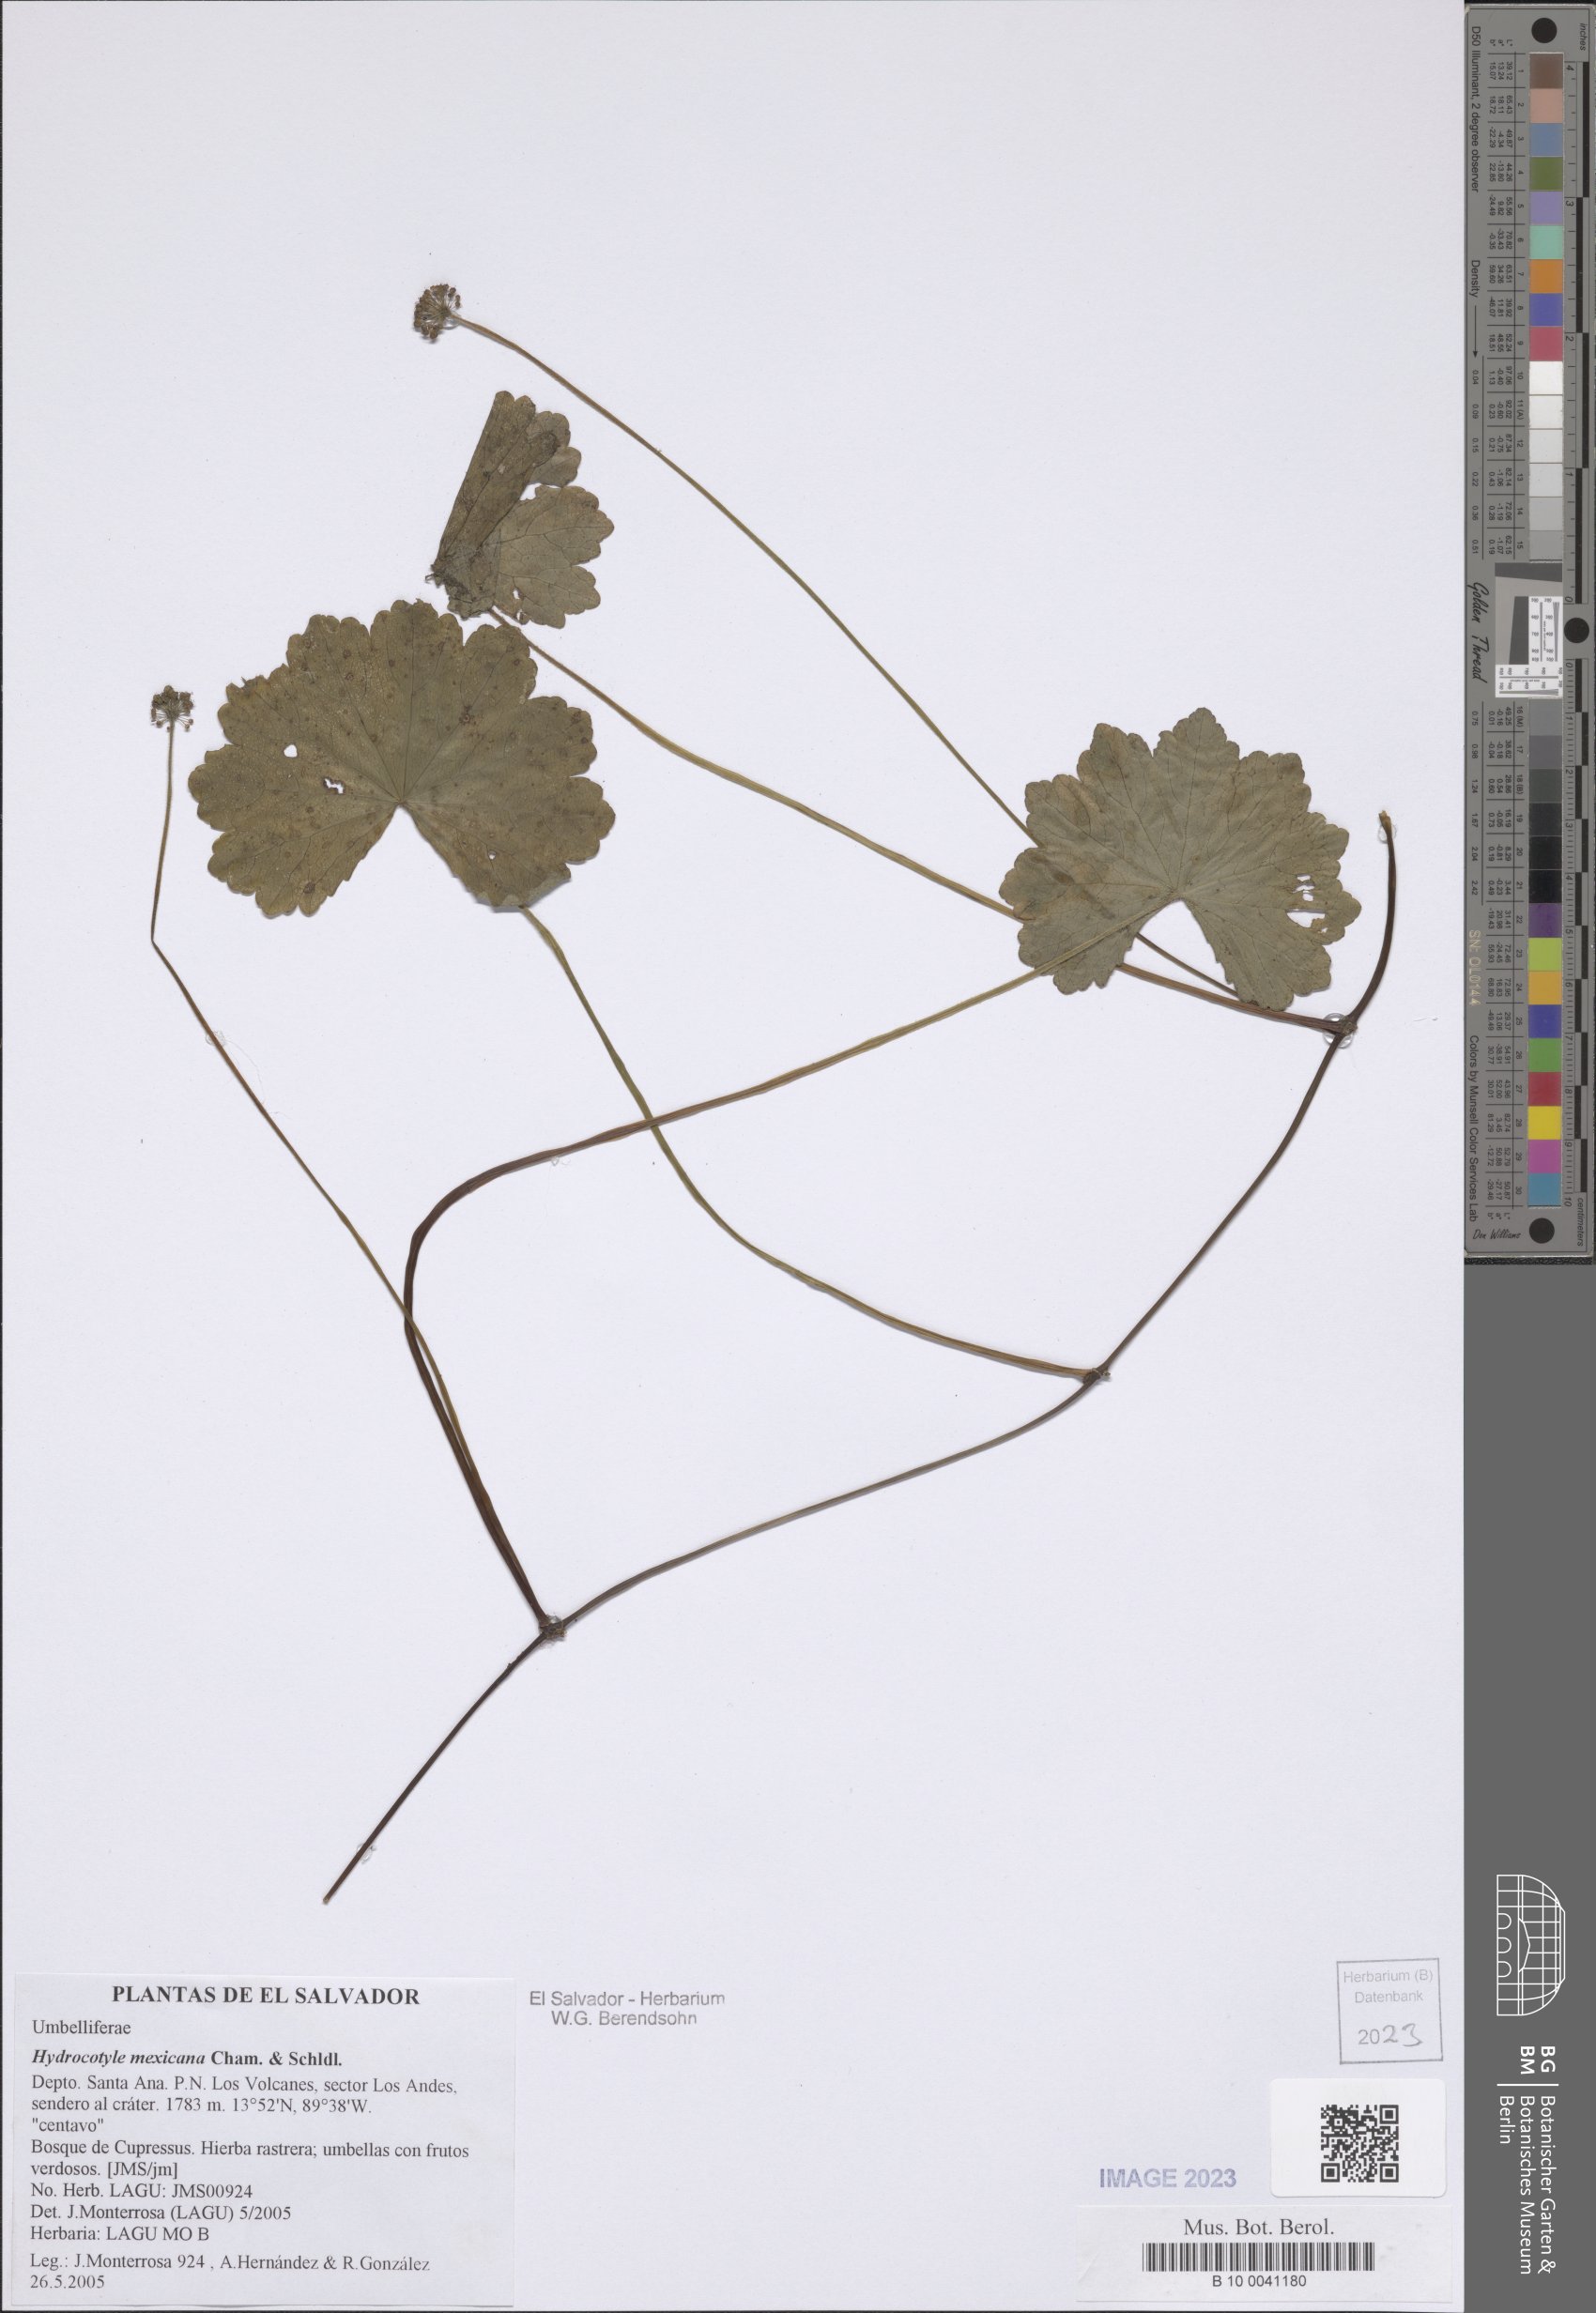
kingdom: Plantae
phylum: Tracheophyta
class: Magnoliopsida
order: Apiales
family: Araliaceae
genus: Hydrocotyle
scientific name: Hydrocotyle mexicana
